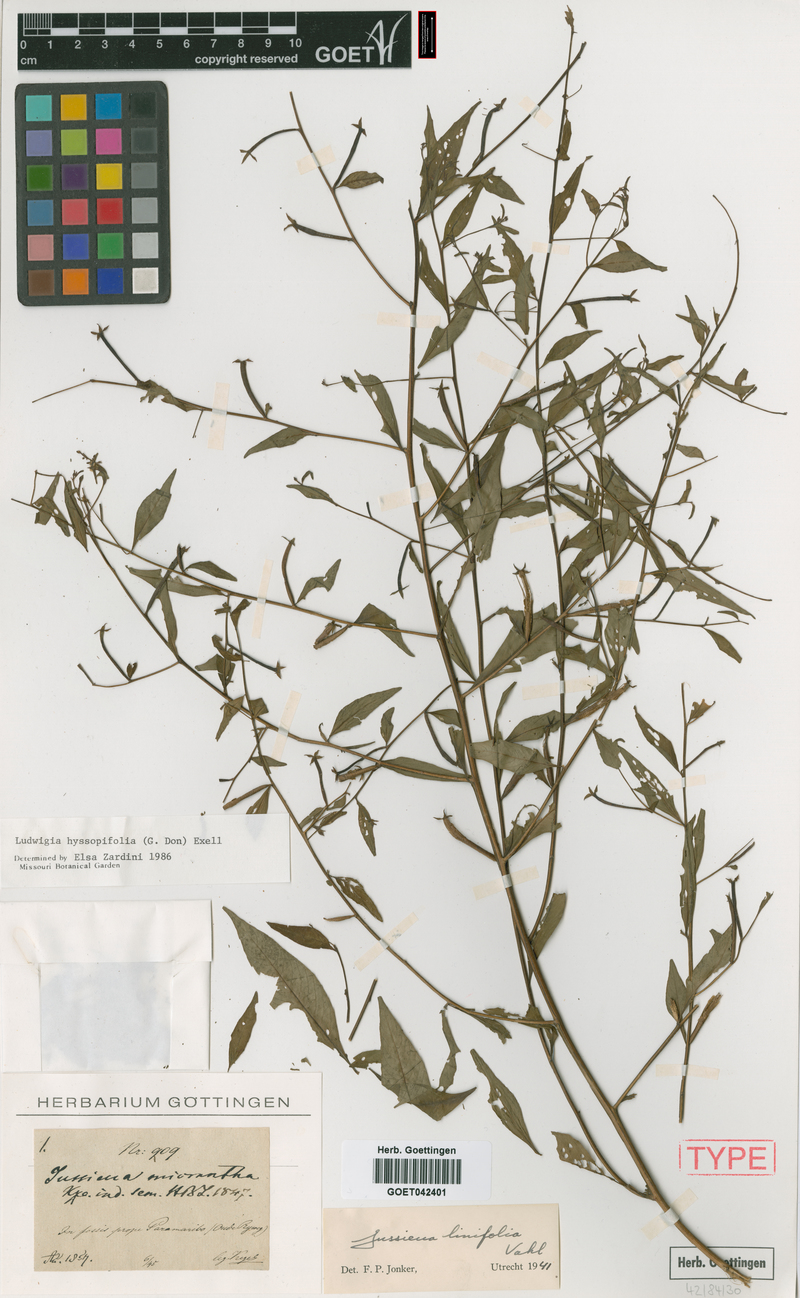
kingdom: Plantae
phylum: Tracheophyta
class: Magnoliopsida
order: Myrtales
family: Onagraceae
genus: Ludwigia
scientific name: Ludwigia hyssopifolia
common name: Linear leaf water primrose
